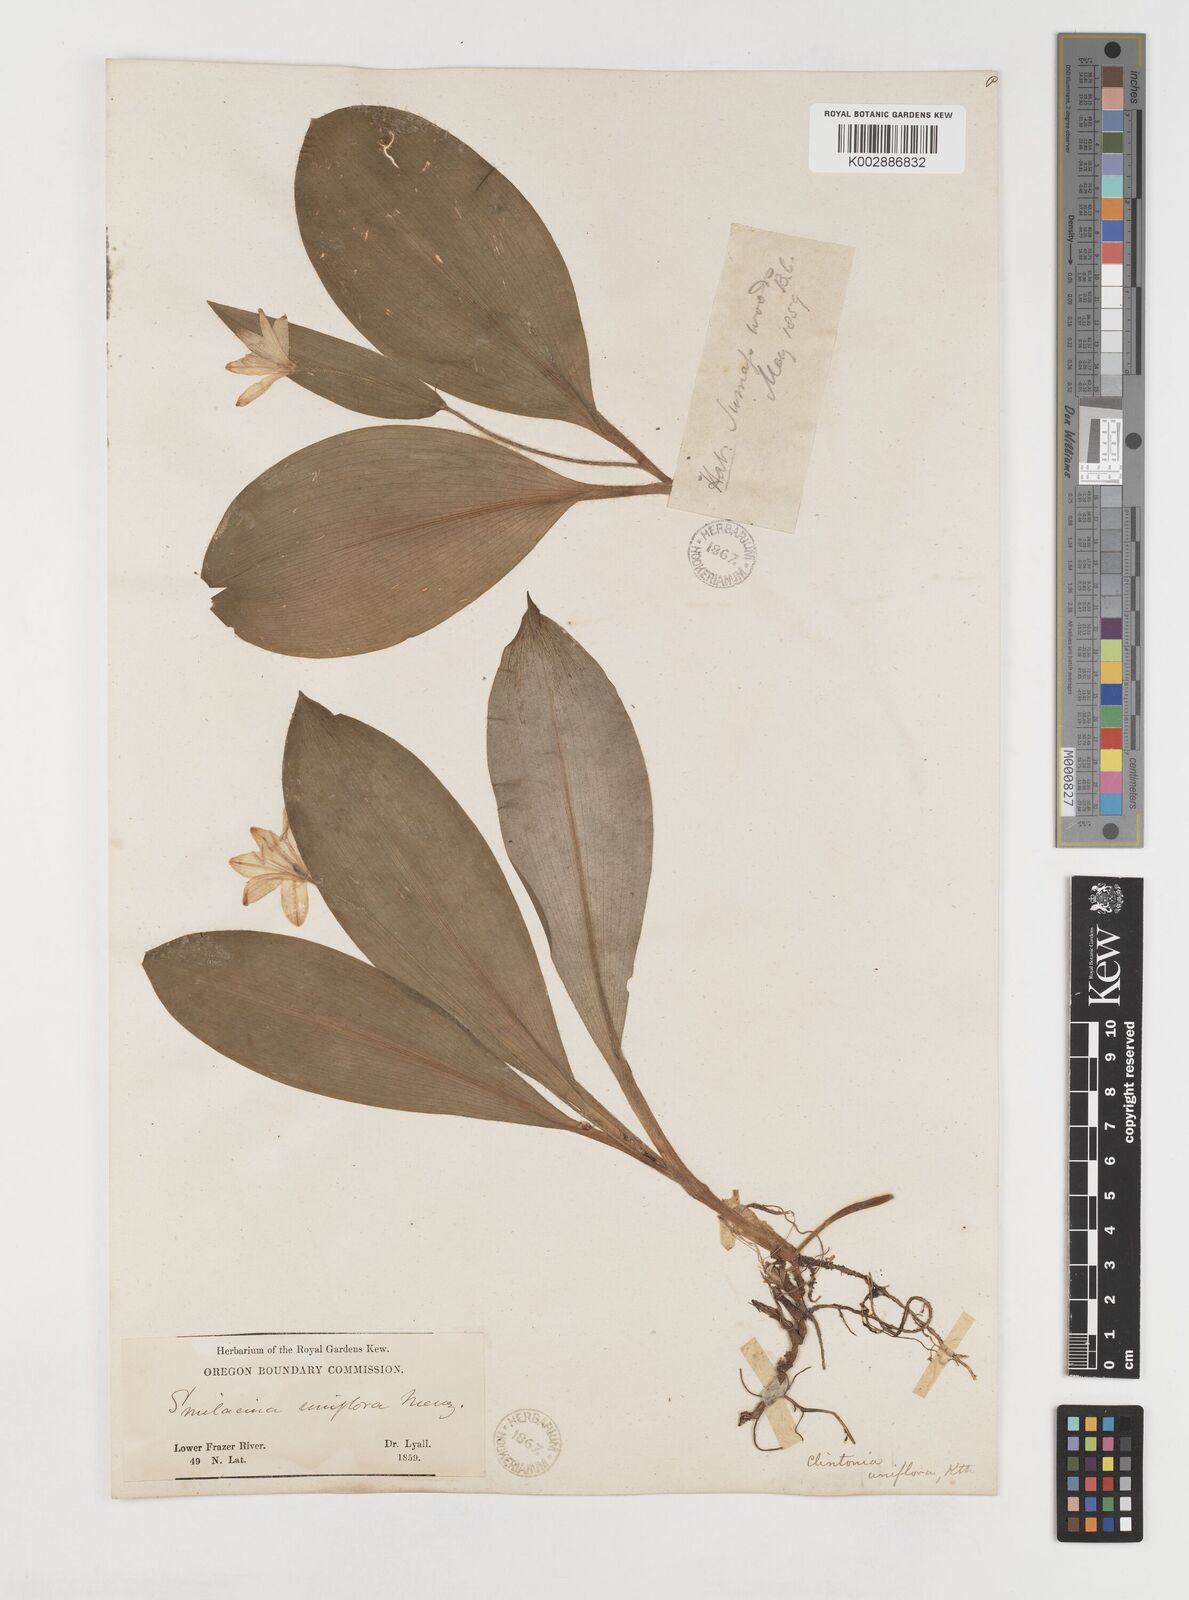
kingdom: Plantae
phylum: Tracheophyta
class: Liliopsida
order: Liliales
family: Liliaceae
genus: Clintonia
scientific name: Clintonia uniflora
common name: Queen's cup
